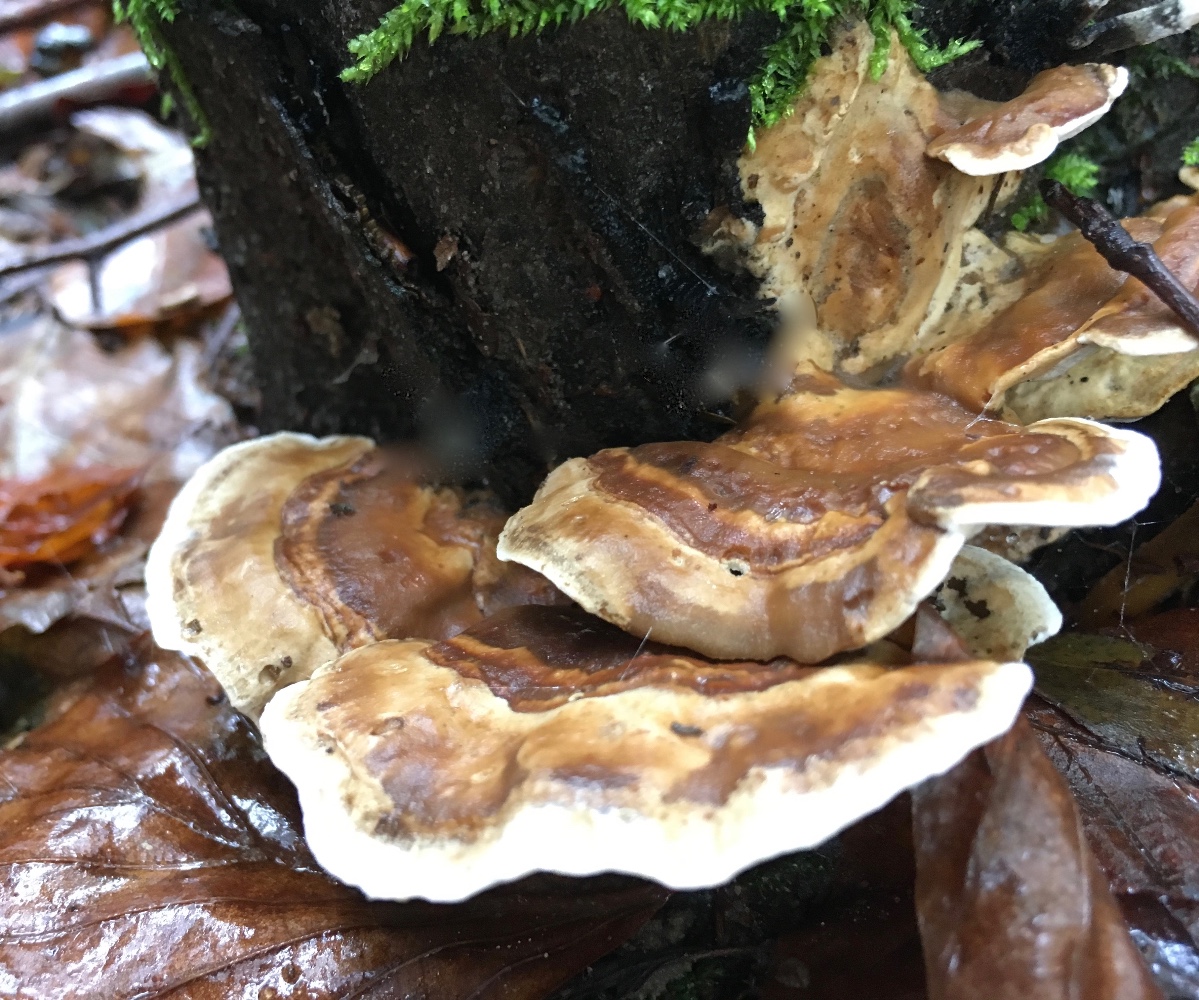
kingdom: Fungi
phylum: Basidiomycota
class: Agaricomycetes
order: Polyporales
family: Phanerochaetaceae
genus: Bjerkandera
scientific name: Bjerkandera fumosa
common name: grågul sodporesvamp
